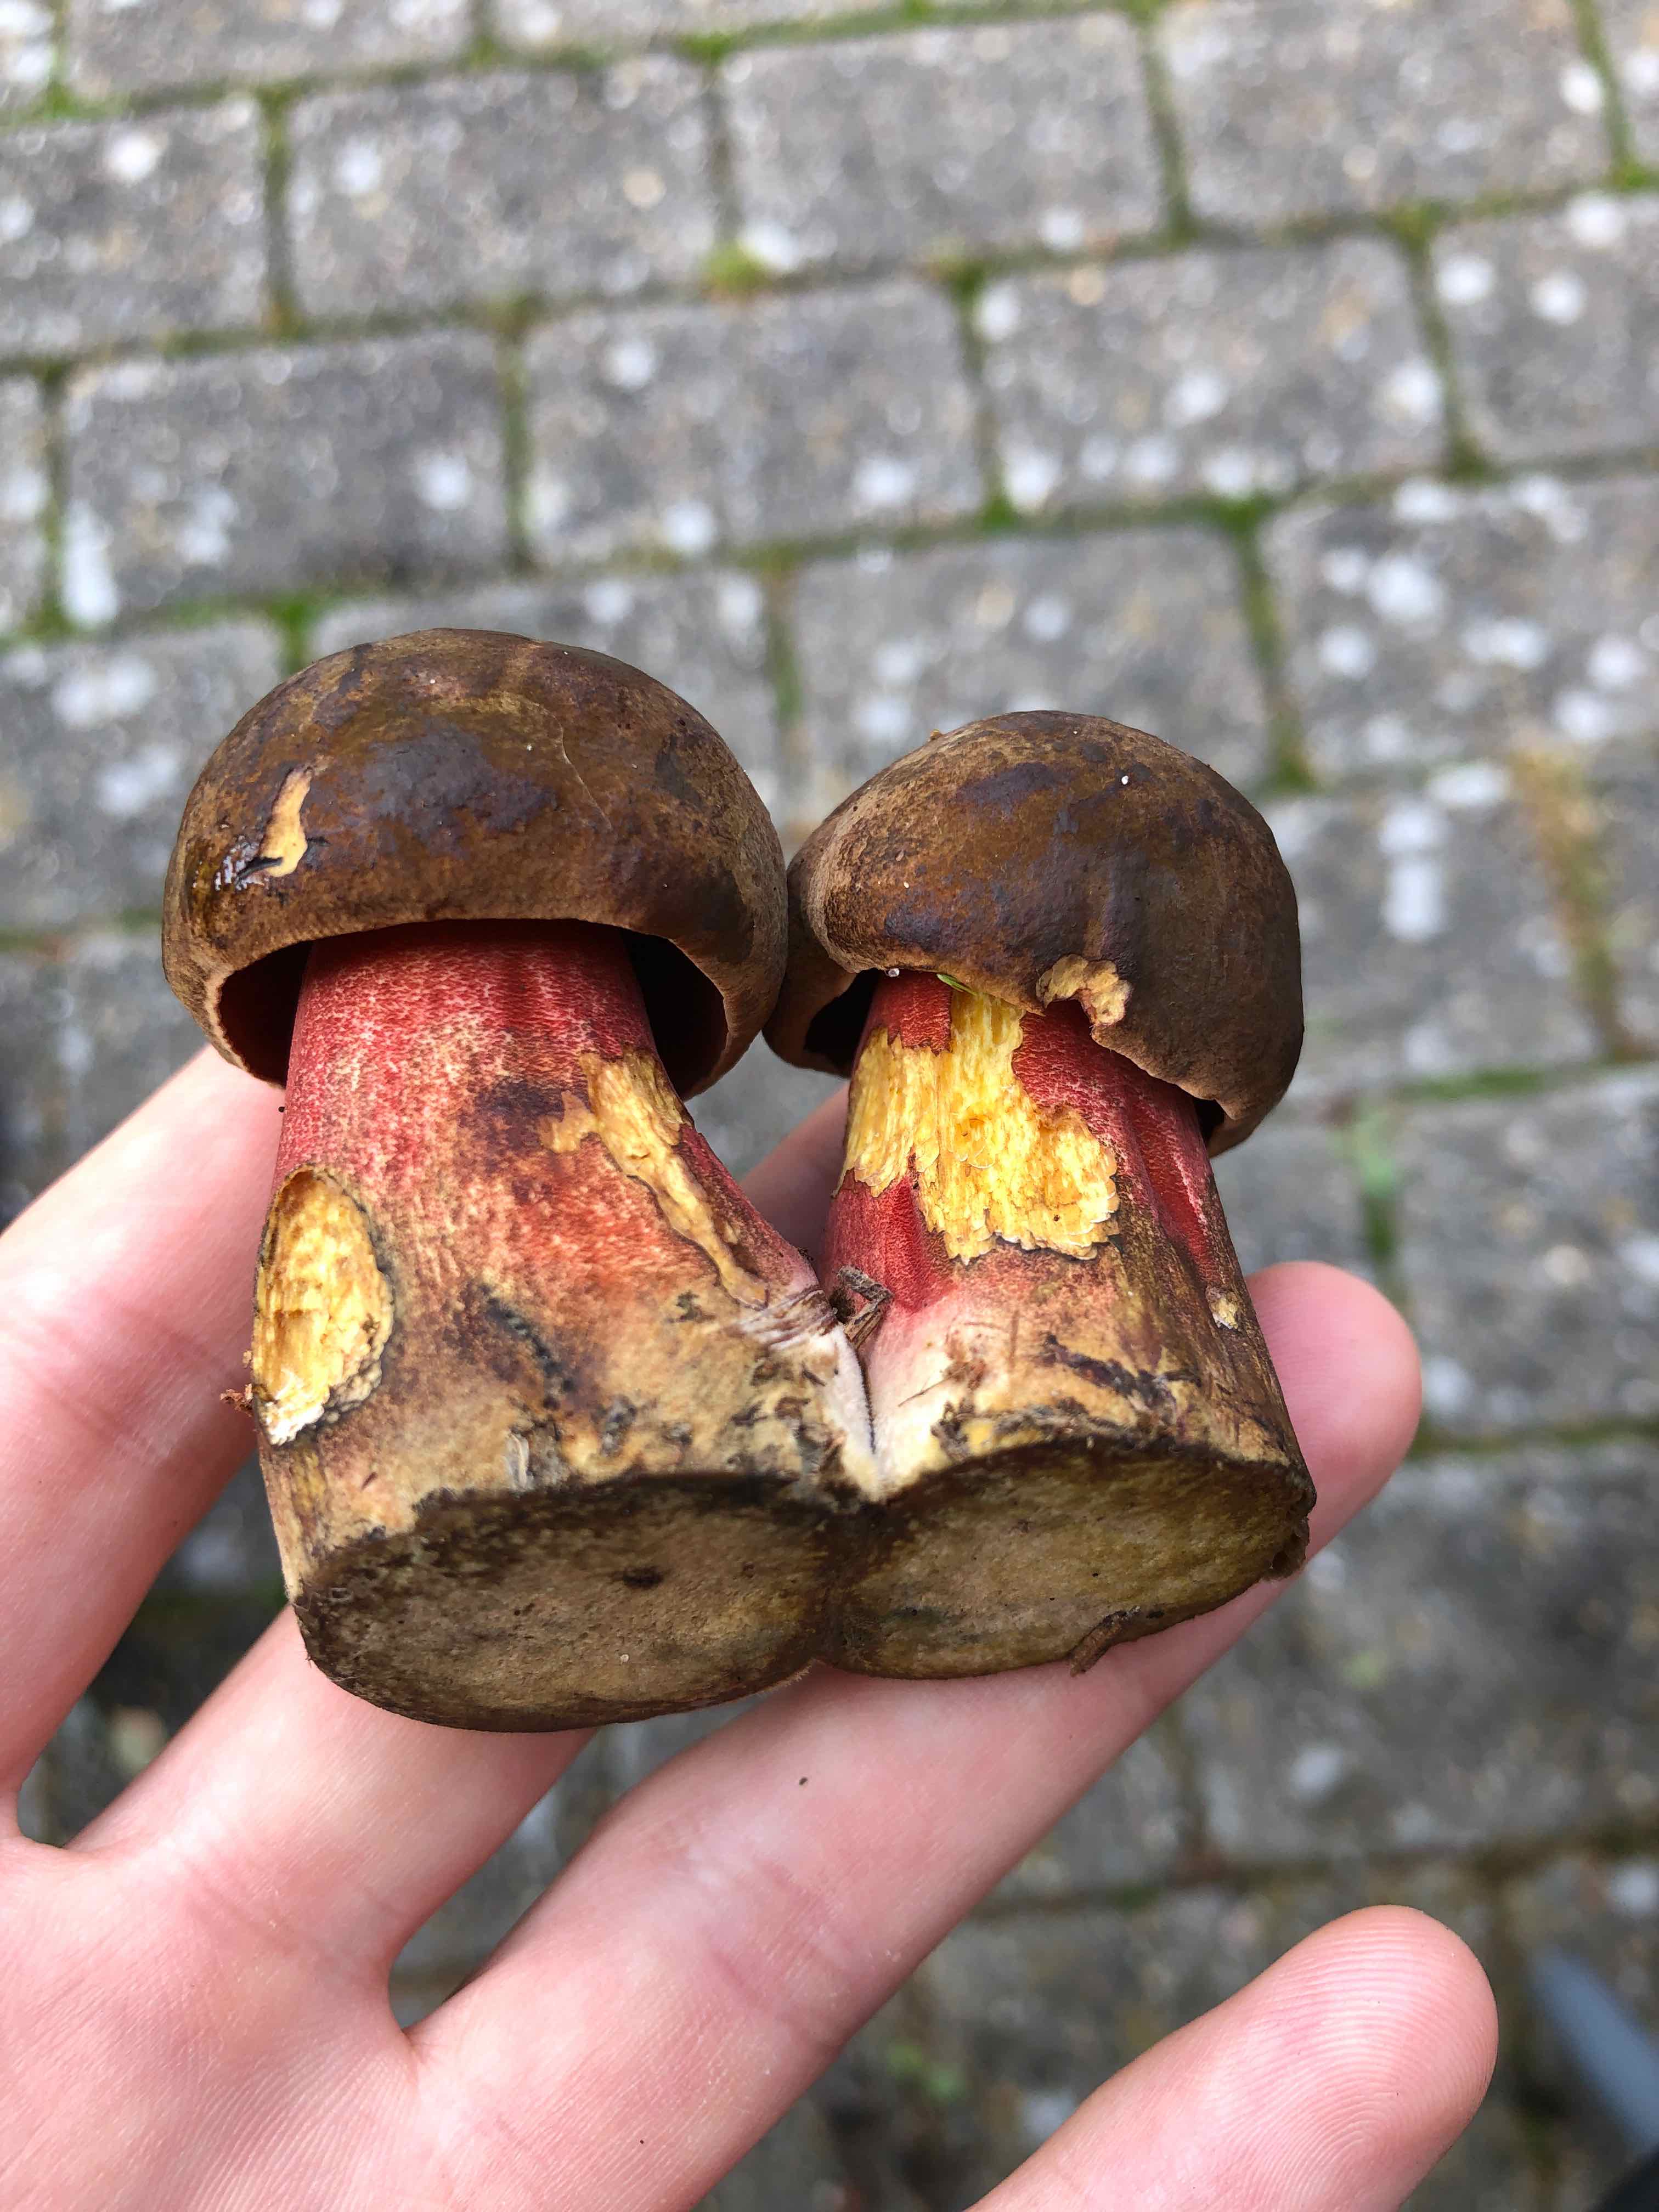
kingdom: Fungi
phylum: Basidiomycota
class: Agaricomycetes
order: Boletales
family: Boletaceae
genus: Neoboletus
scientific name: Neoboletus erythropus
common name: punktstokket indigorørhat
